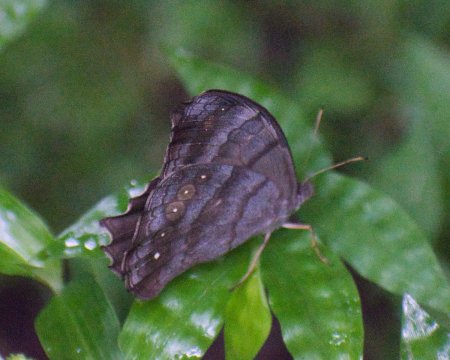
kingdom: Animalia
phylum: Arthropoda
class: Insecta
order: Lepidoptera
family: Nymphalidae
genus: Taygetis
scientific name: Taygetis kerea
